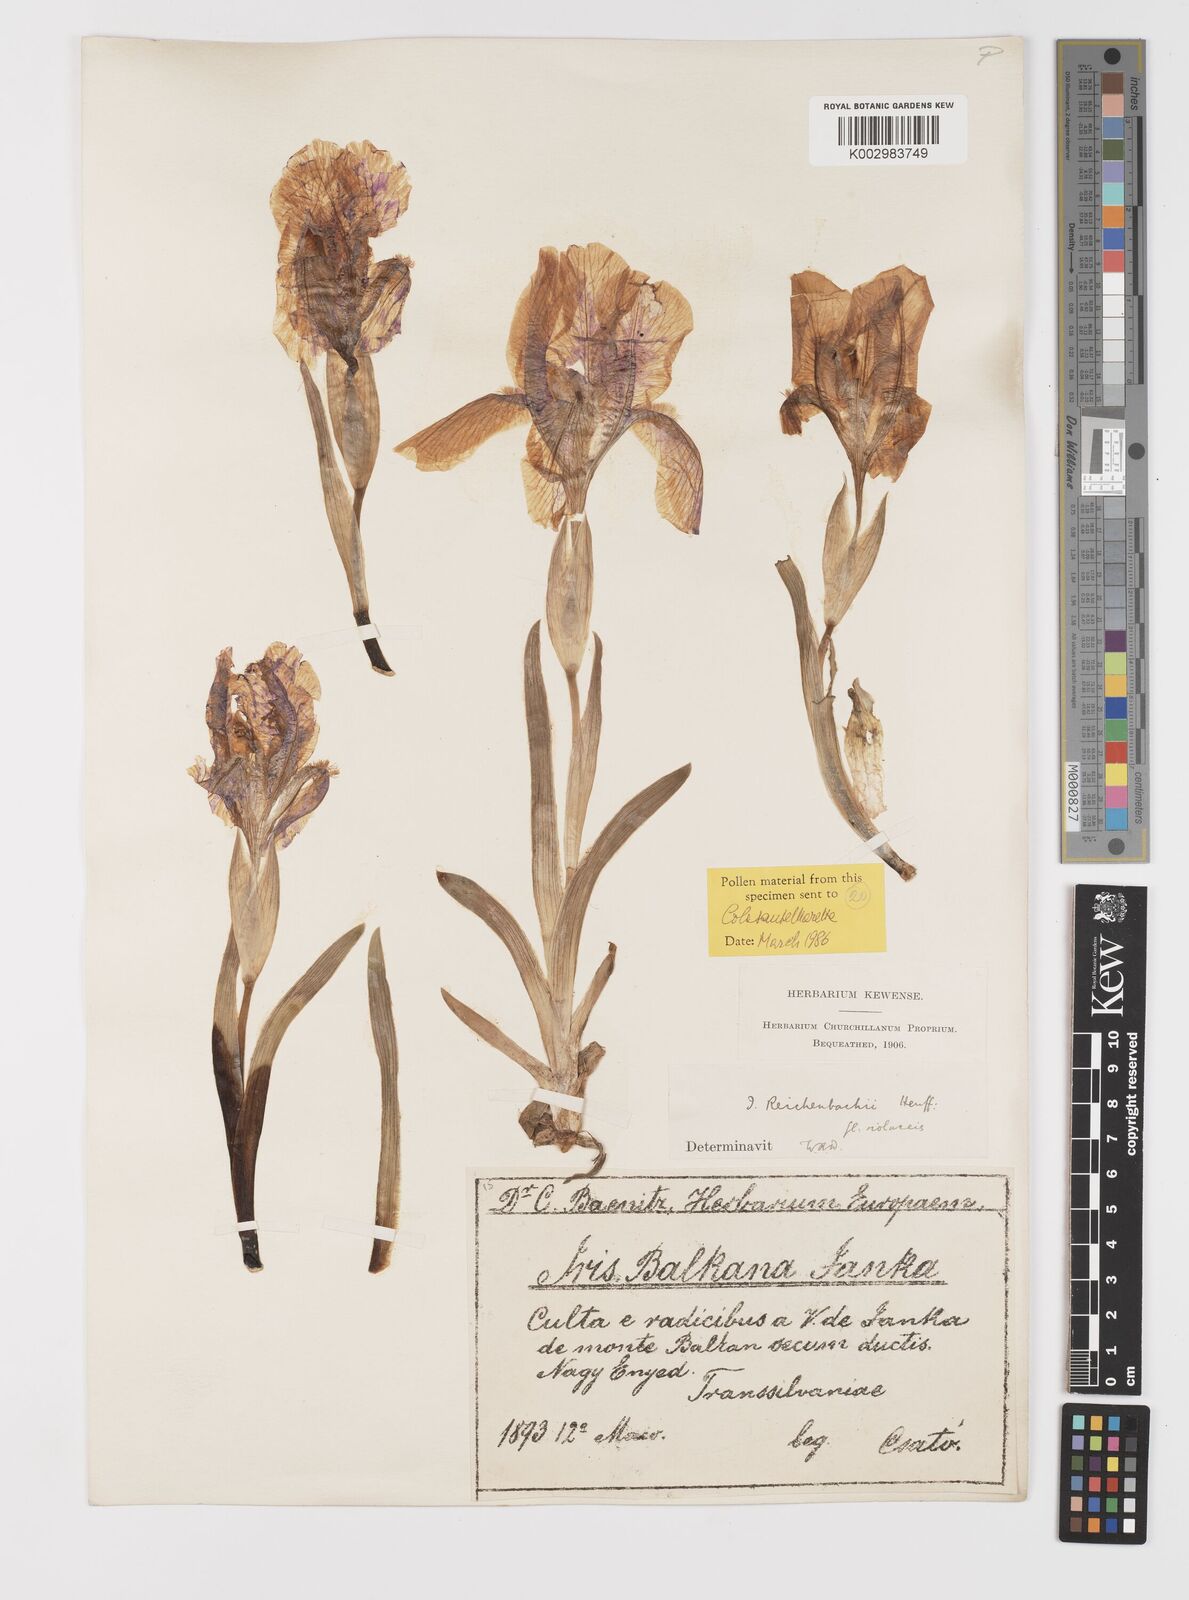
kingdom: Plantae
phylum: Tracheophyta
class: Liliopsida
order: Asparagales
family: Iridaceae
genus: Iris
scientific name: Iris reichenbachii
